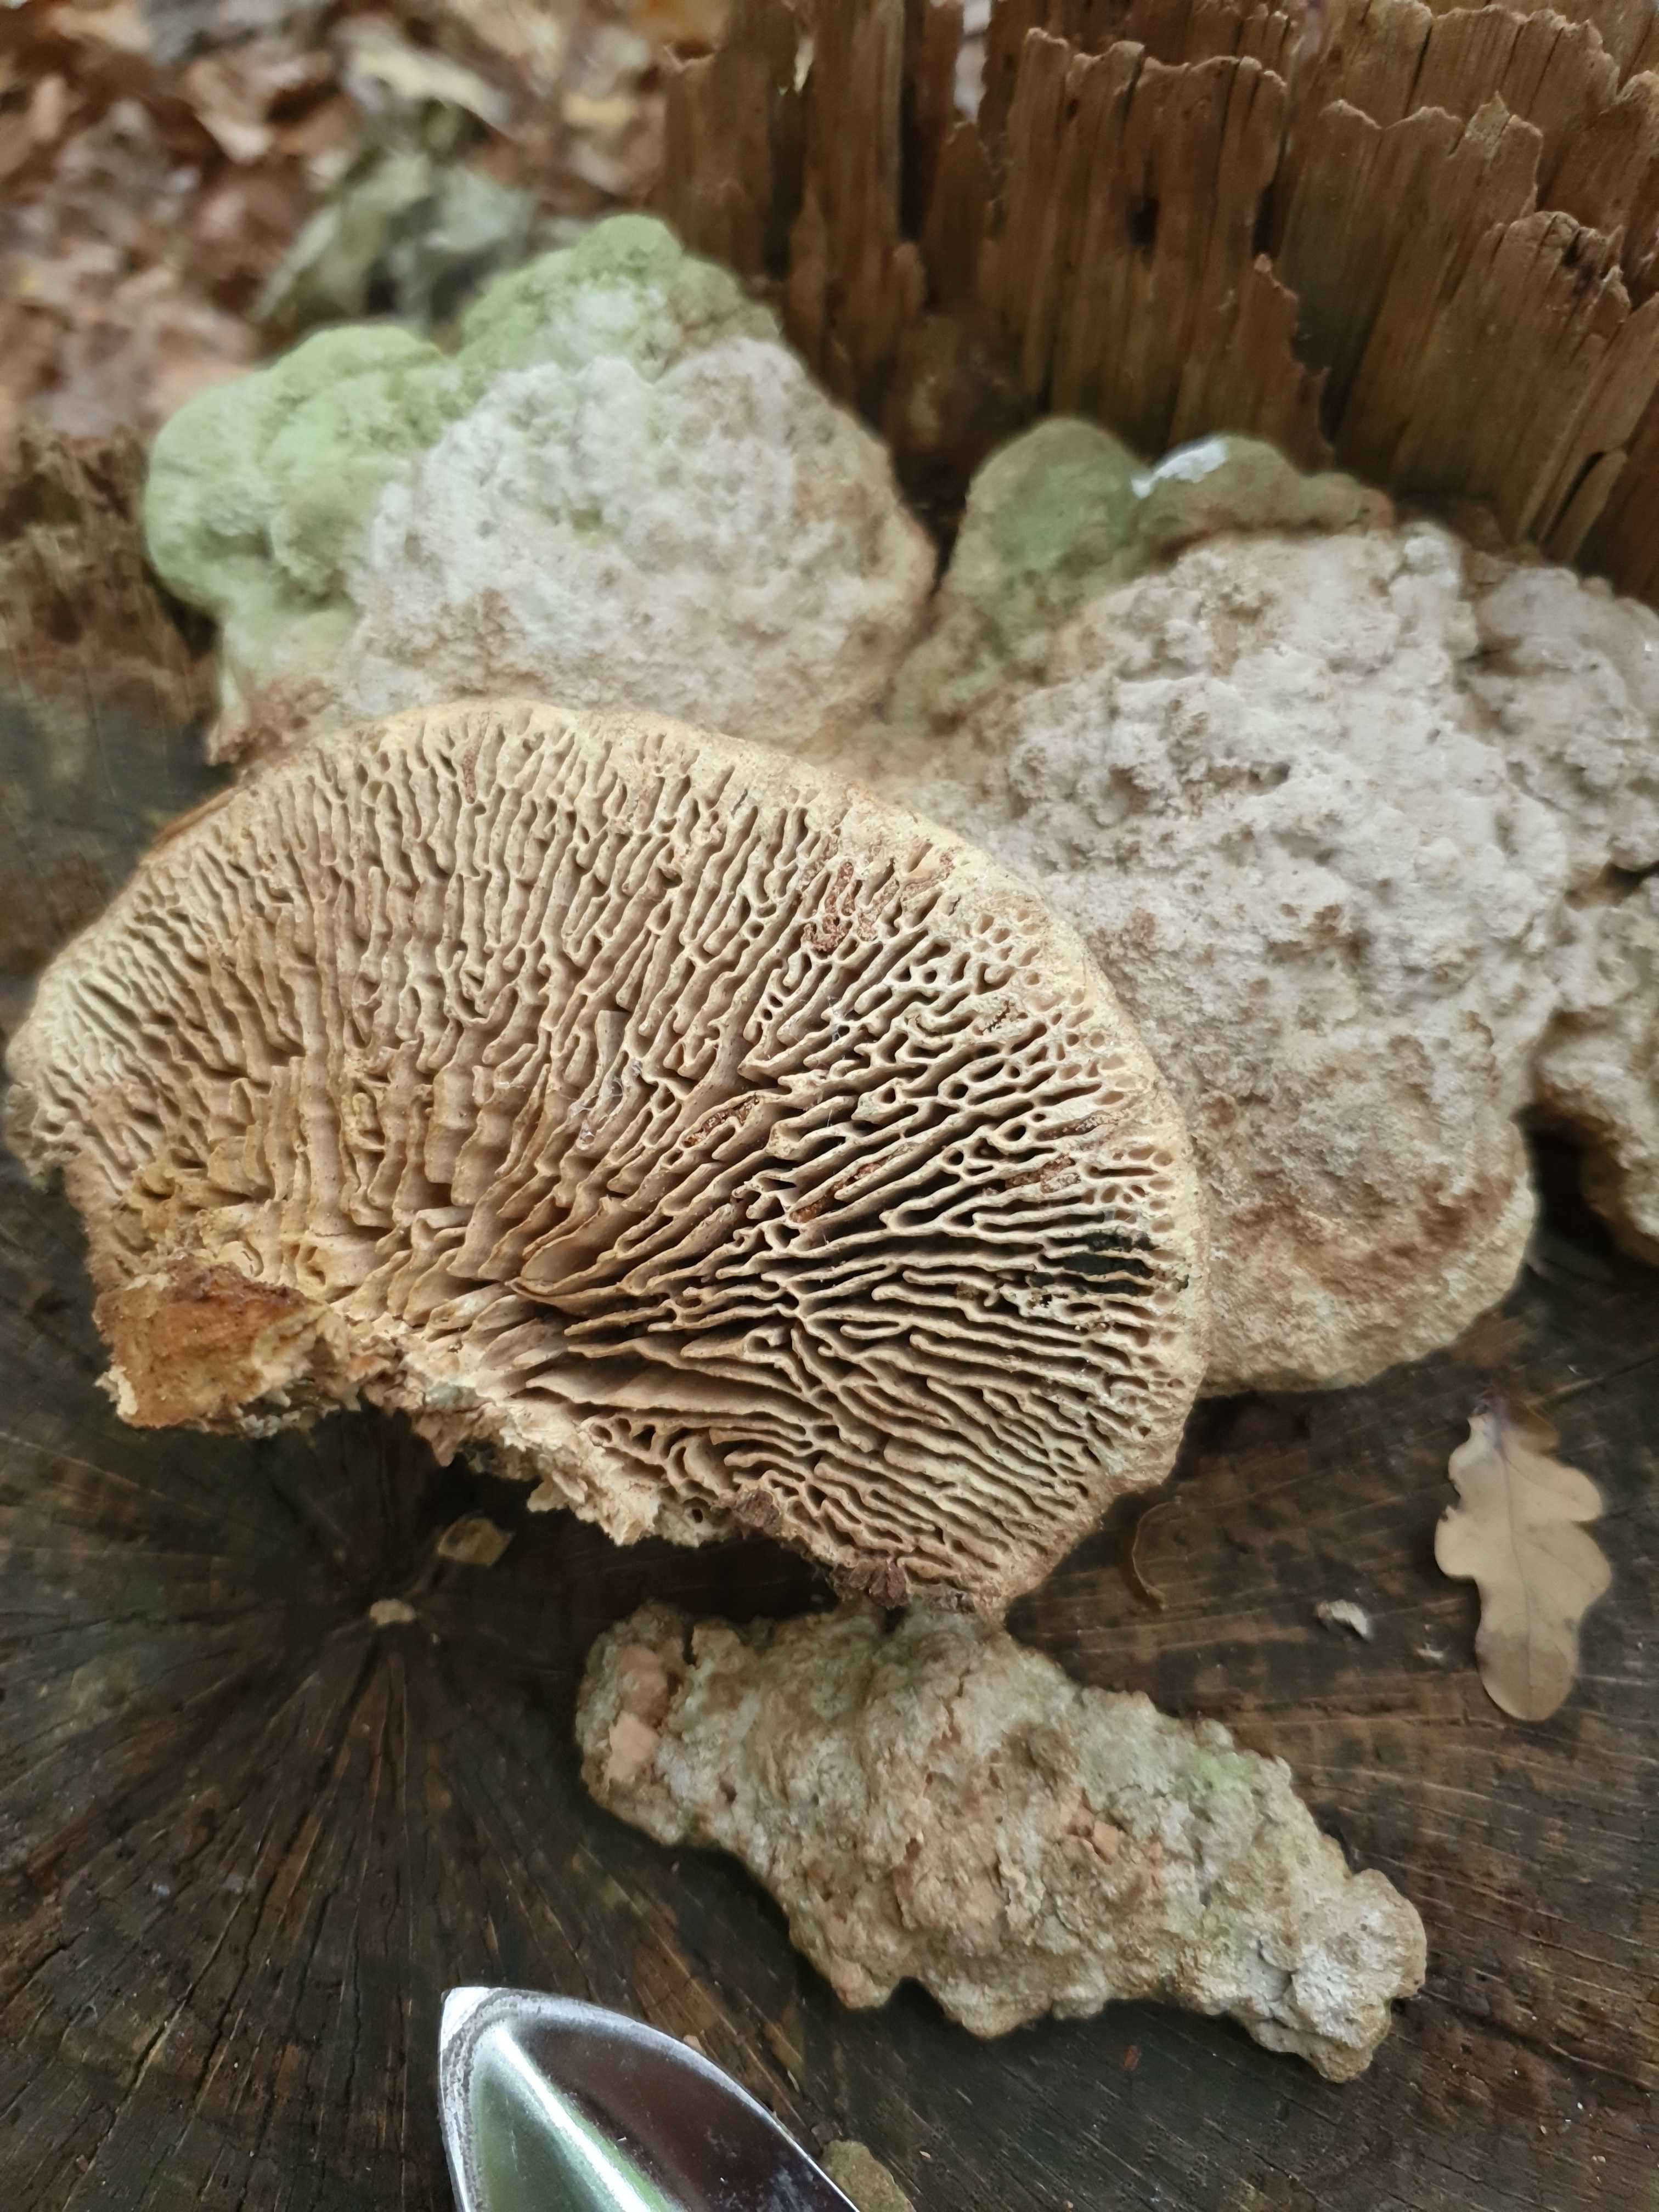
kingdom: Fungi
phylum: Basidiomycota
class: Agaricomycetes
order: Polyporales
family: Fomitopsidaceae
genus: Daedalea
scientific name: Daedalea quercina
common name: ege-labyrintsvamp
